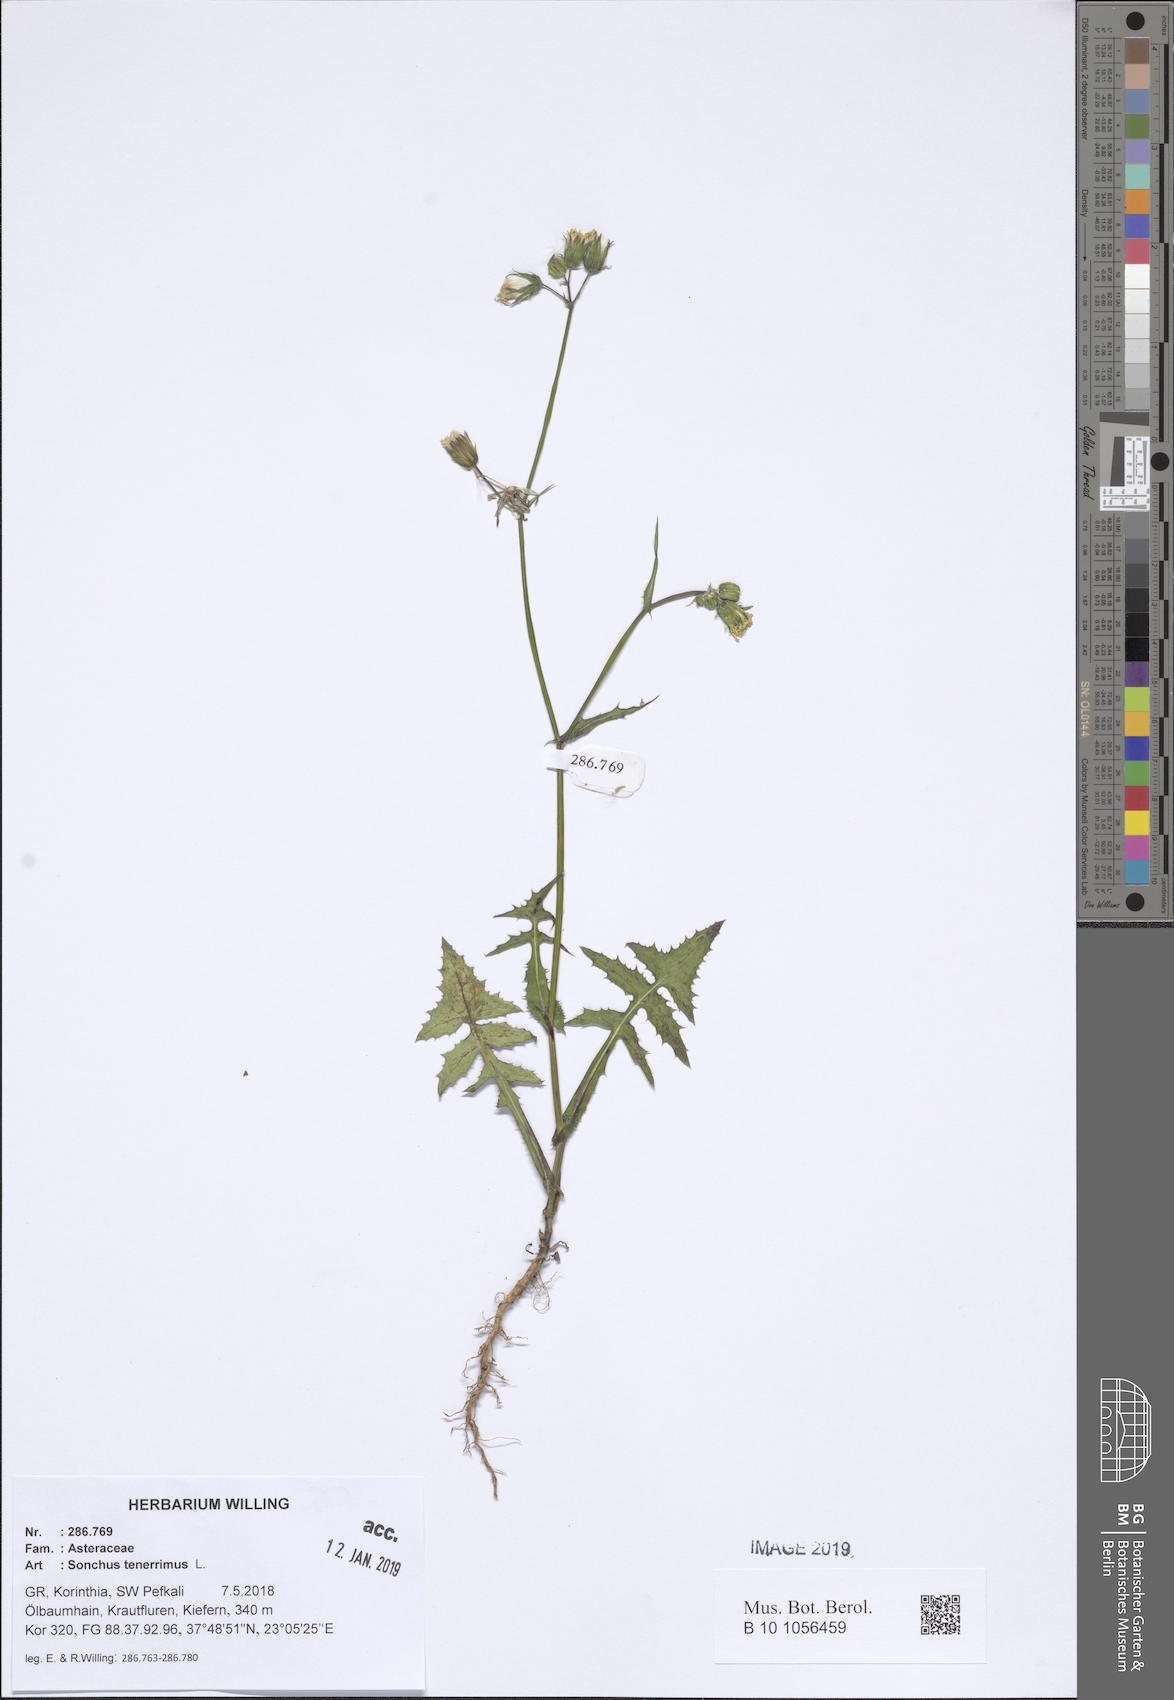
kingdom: Plantae
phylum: Tracheophyta
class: Magnoliopsida
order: Asterales
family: Asteraceae
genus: Sonchus
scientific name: Sonchus tenerrimus
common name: Clammy sowthistle
